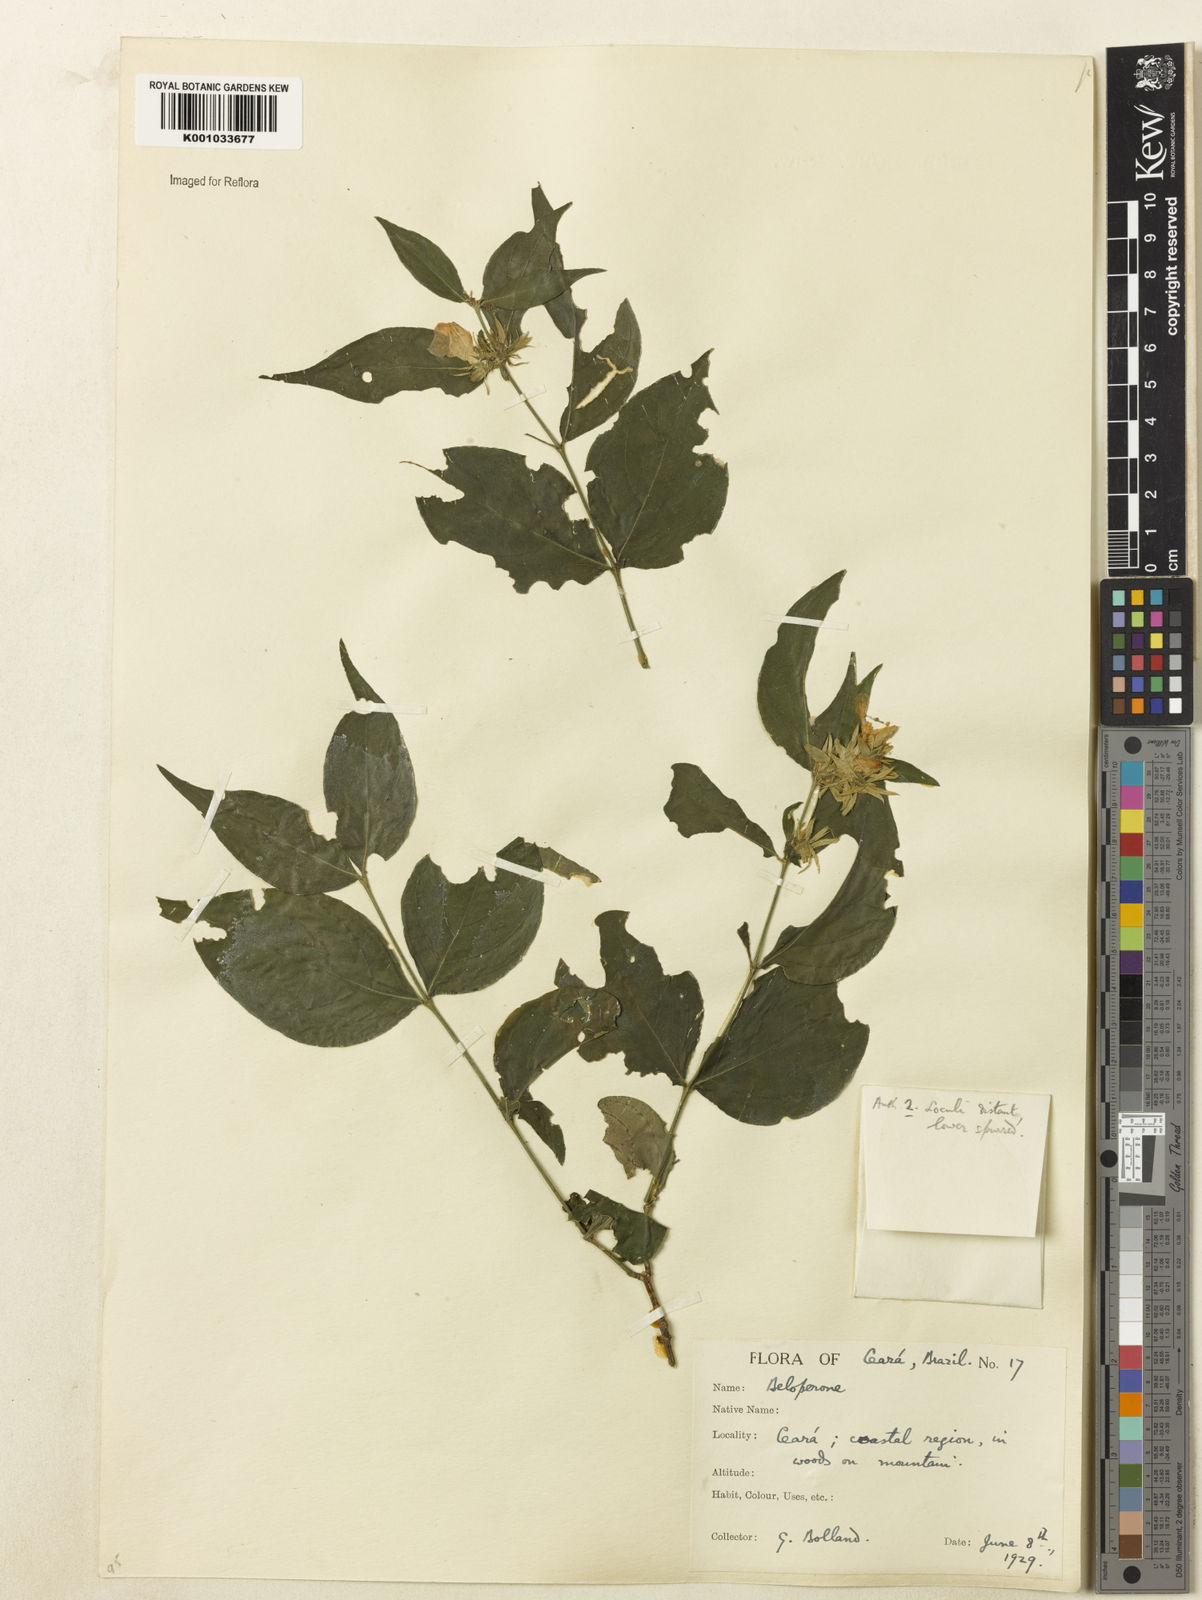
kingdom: Plantae
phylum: Tracheophyta
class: Magnoliopsida
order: Lamiales
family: Acanthaceae
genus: Justicia
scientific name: Justicia
